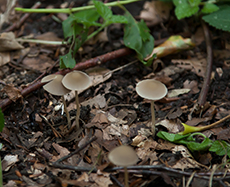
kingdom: Fungi
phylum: Basidiomycota
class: Agaricomycetes
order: Agaricales
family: Psathyrellaceae
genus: Psathyrella
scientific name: Psathyrella pseudogracilis
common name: slank mørkhat
